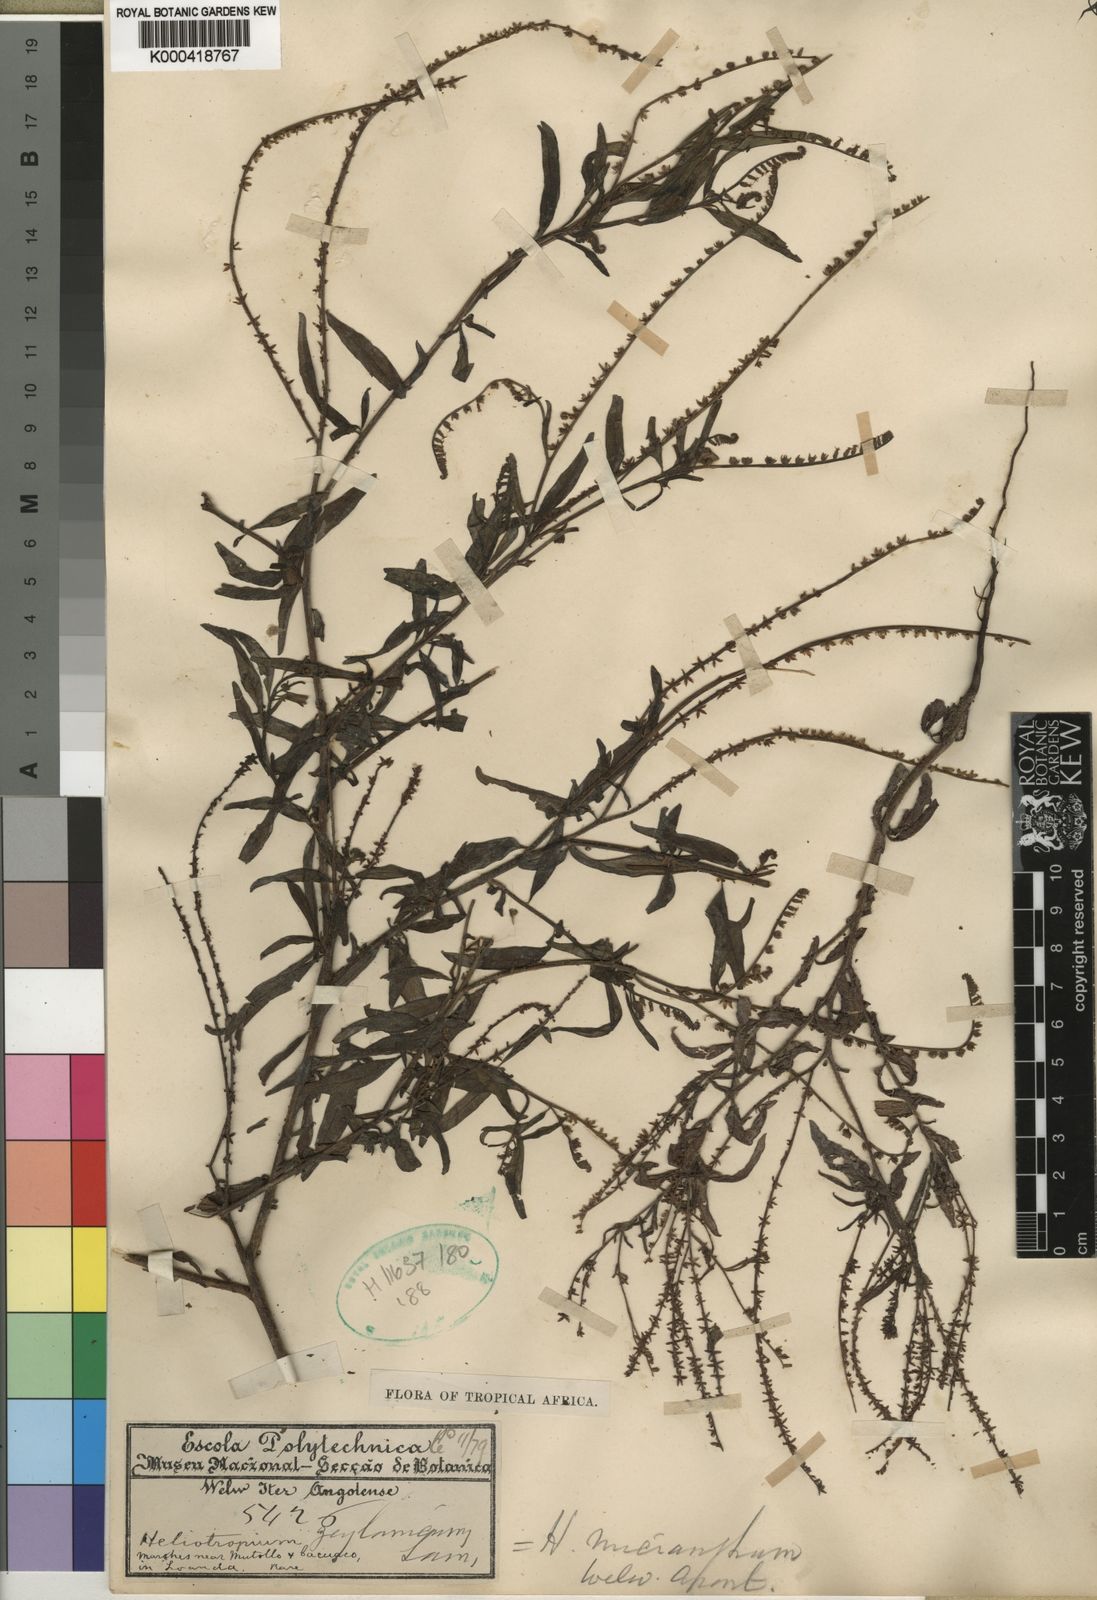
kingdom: Plantae
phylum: Tracheophyta
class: Magnoliopsida
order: Boraginales
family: Heliotropiaceae
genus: Heliotropium
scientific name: Heliotropium zeylanicum
